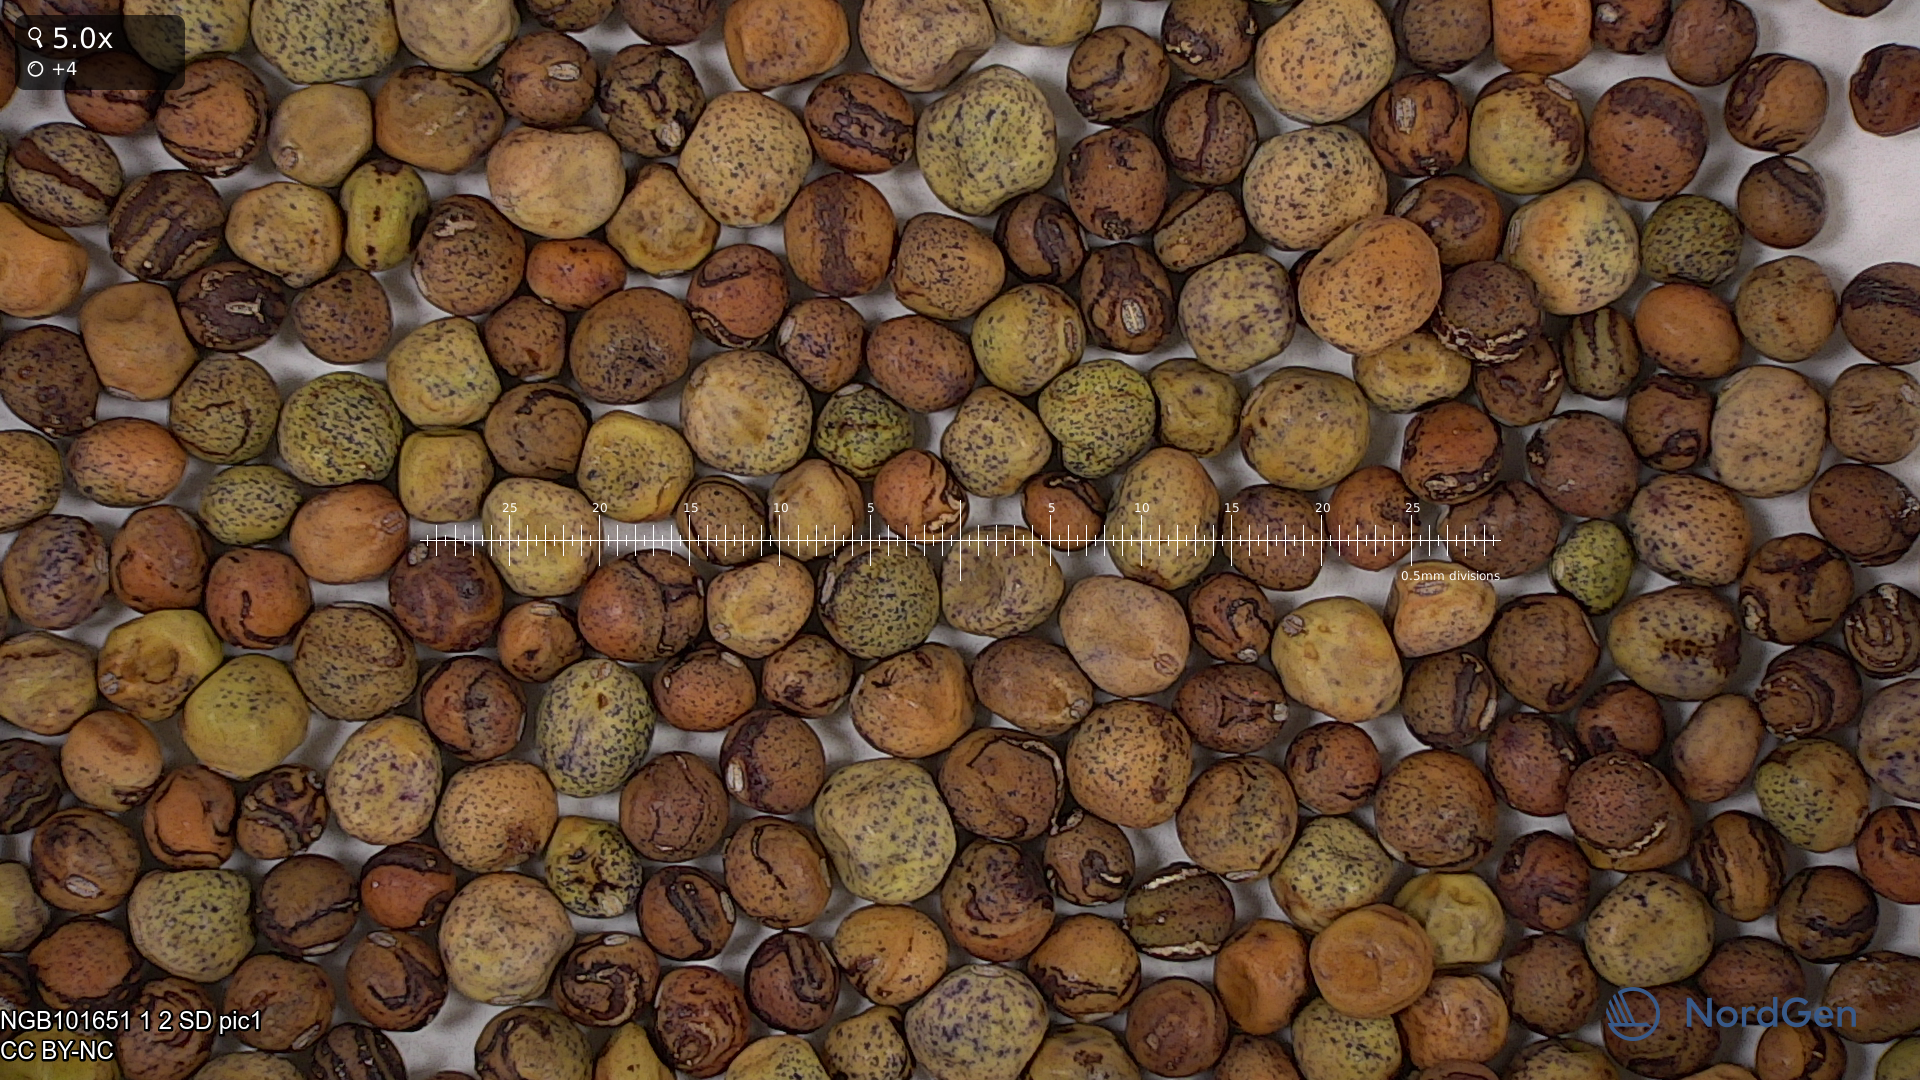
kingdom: Plantae
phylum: Tracheophyta
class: Magnoliopsida
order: Fabales
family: Fabaceae
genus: Lathyrus
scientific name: Lathyrus oleraceus
